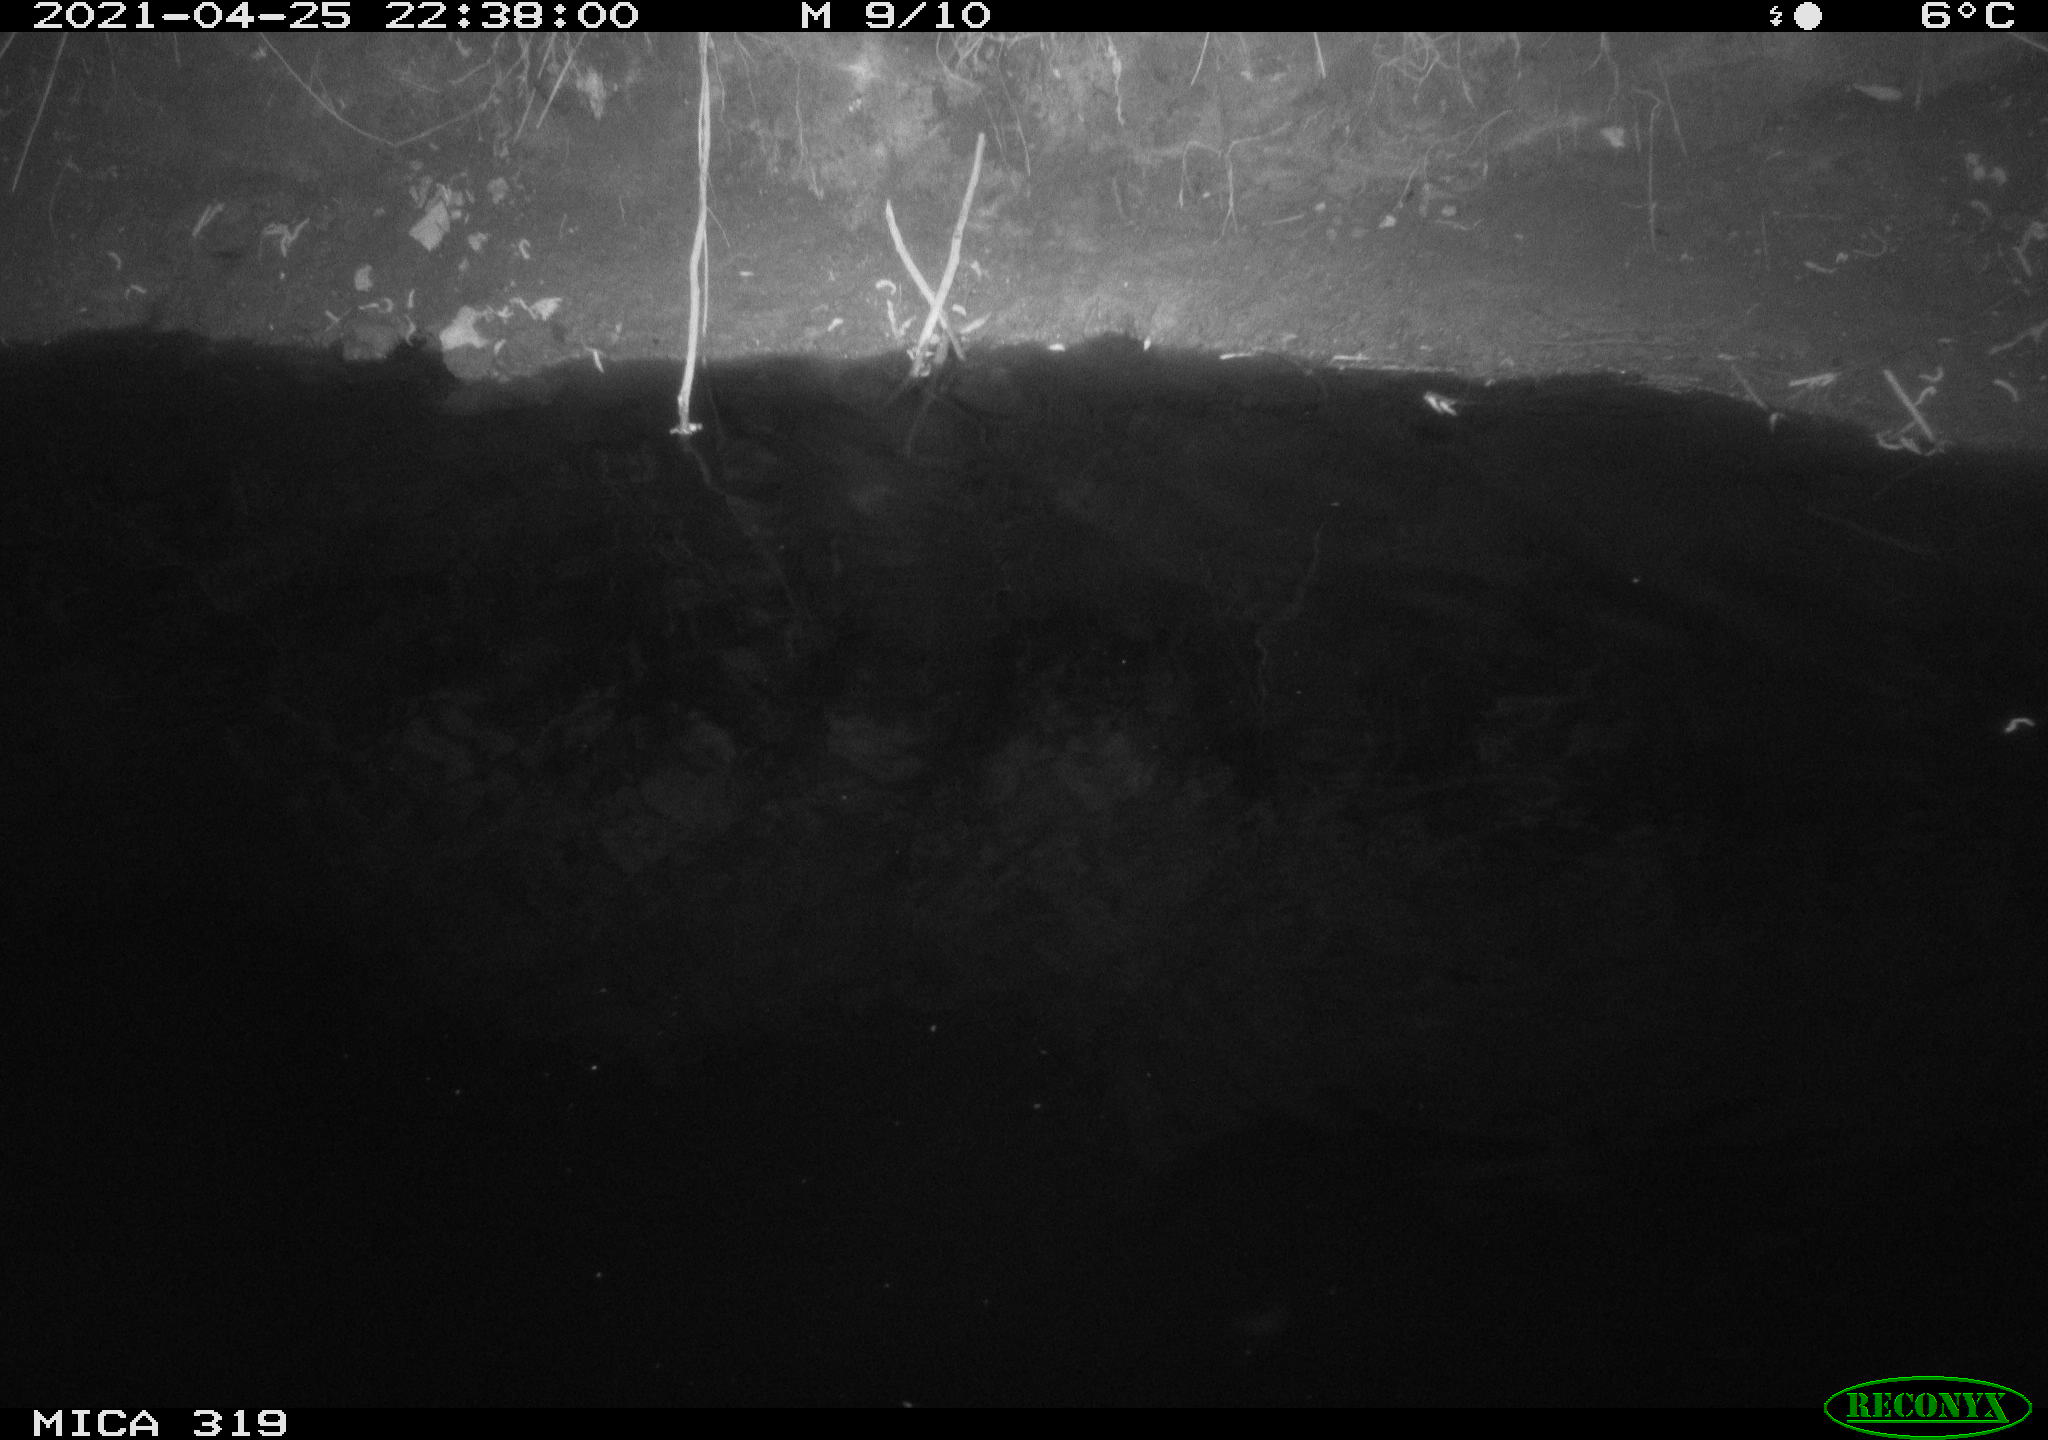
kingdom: Animalia
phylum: Chordata
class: Aves
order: Anseriformes
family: Anatidae
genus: Anas
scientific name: Anas platyrhynchos
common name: Mallard
